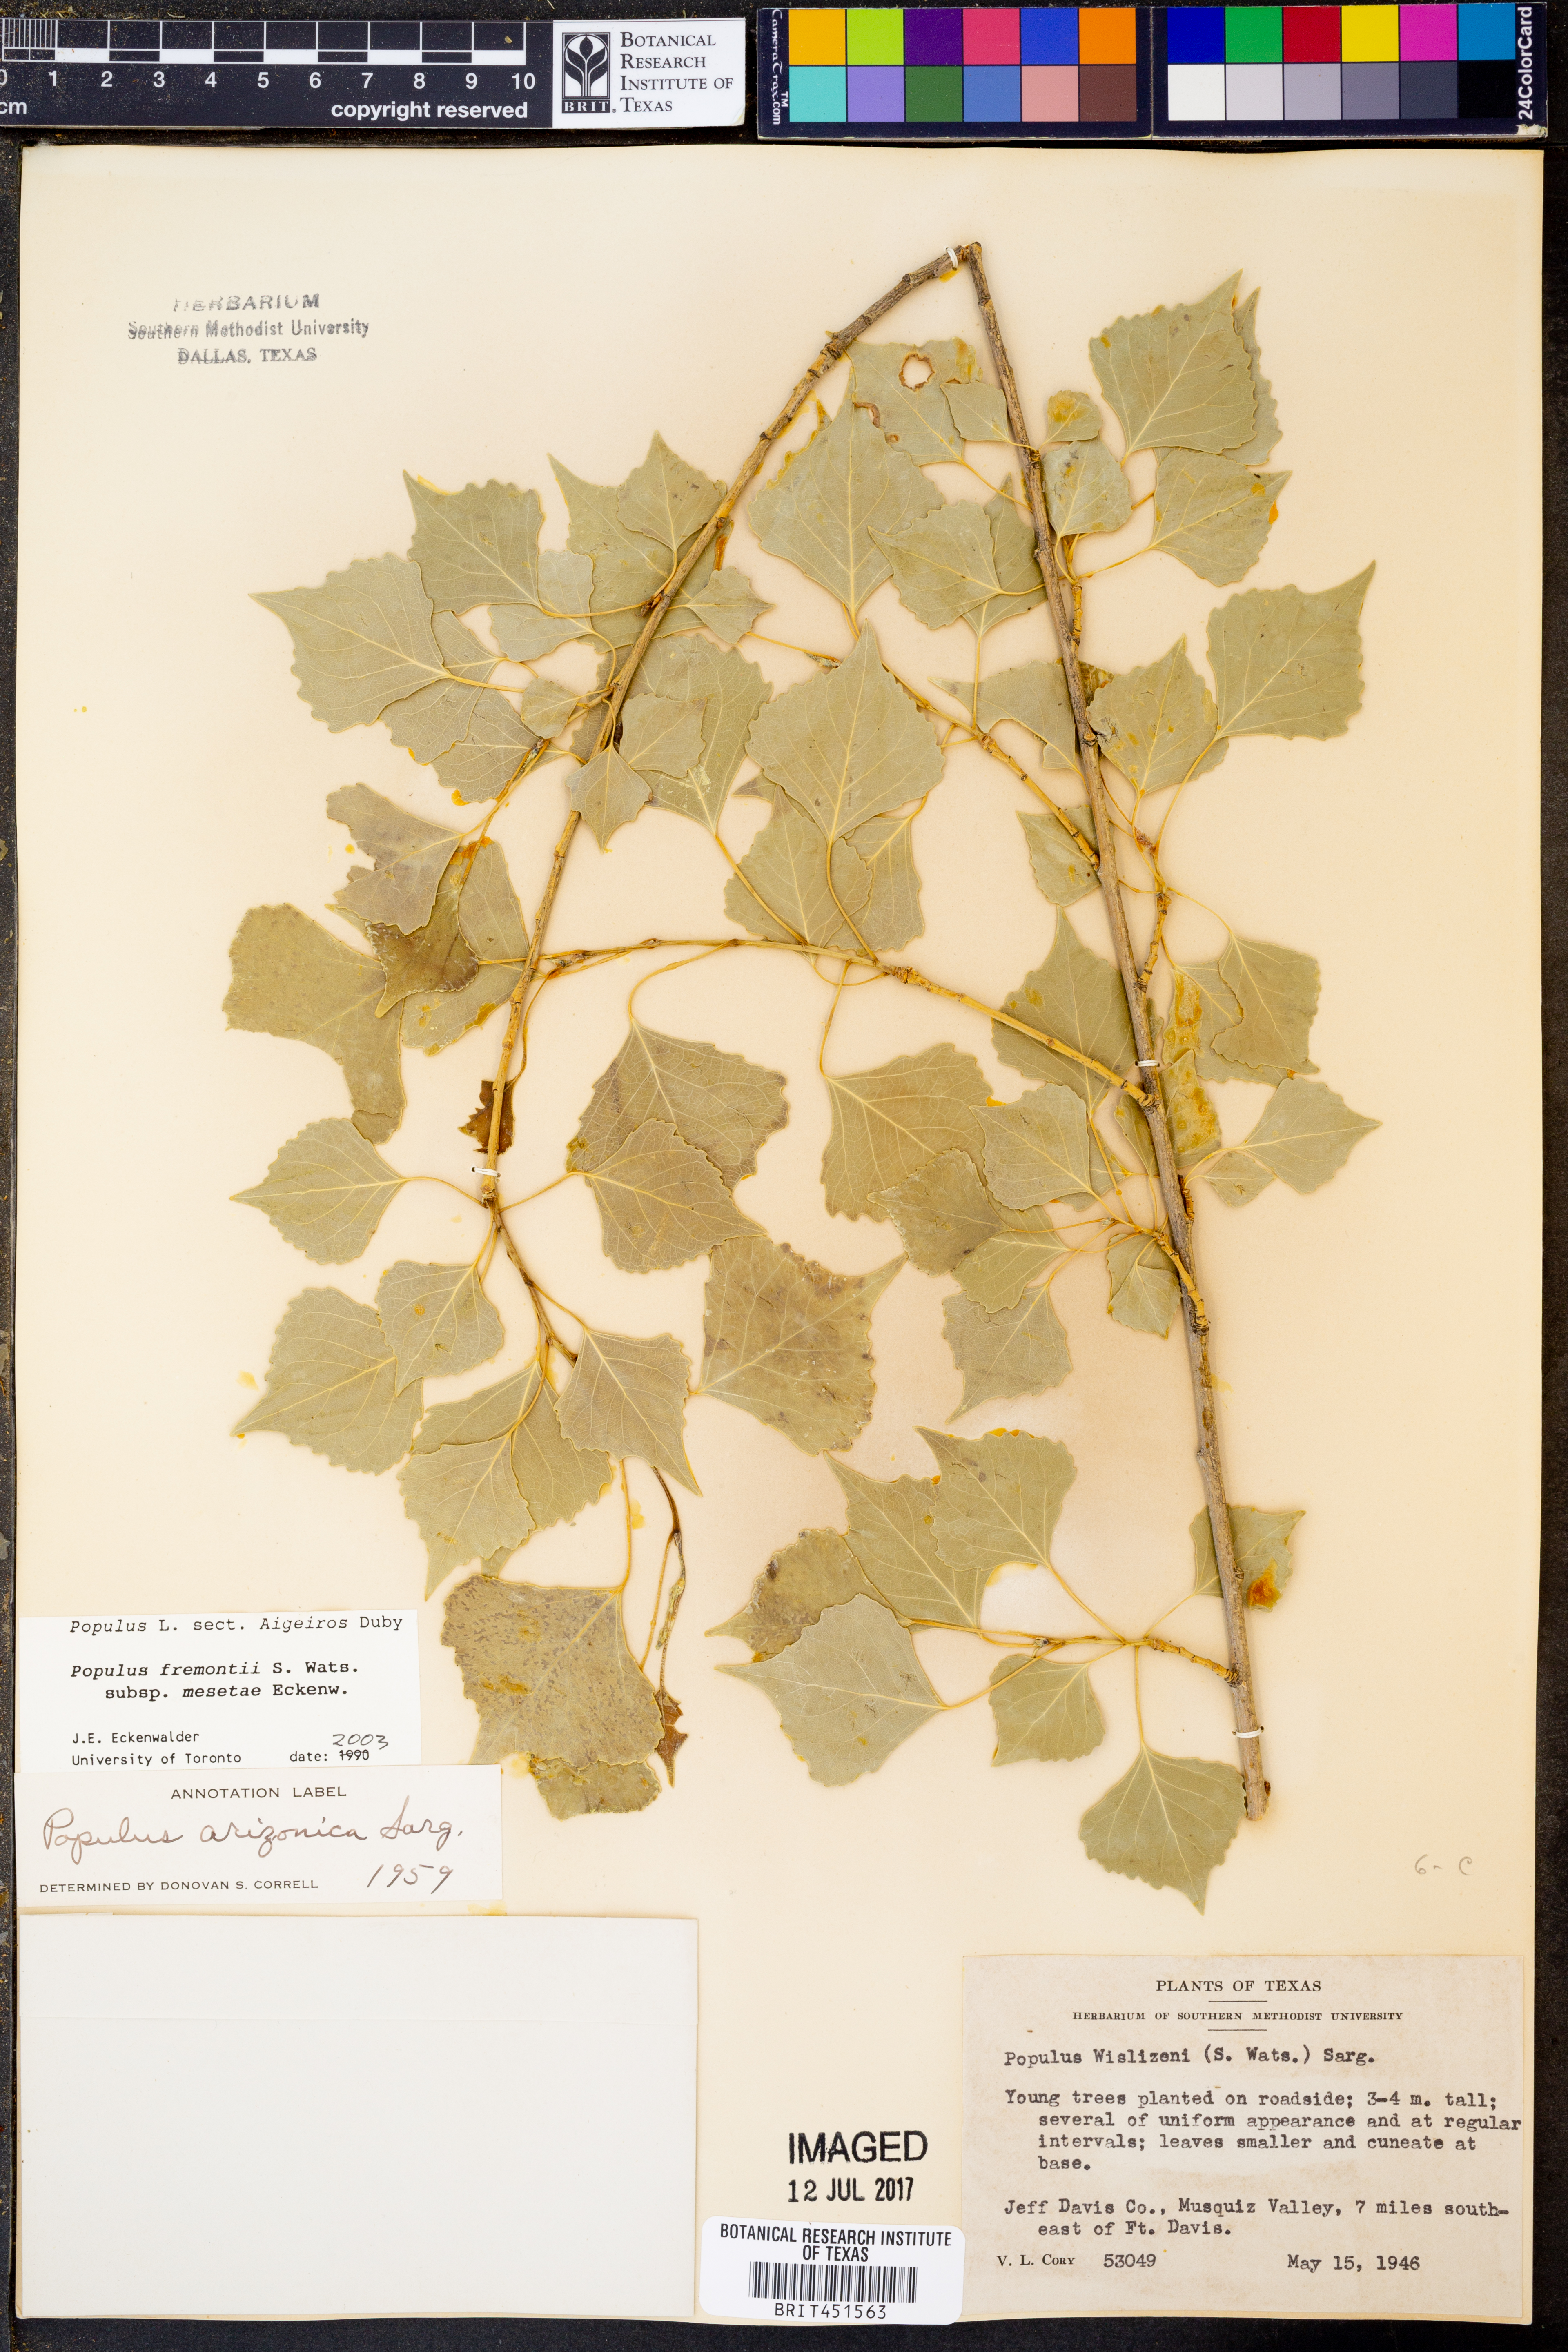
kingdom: Plantae
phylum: Tracheophyta
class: Magnoliopsida
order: Malpighiales
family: Salicaceae
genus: Populus
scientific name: Populus fremontii
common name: Fremont's cottonwood
